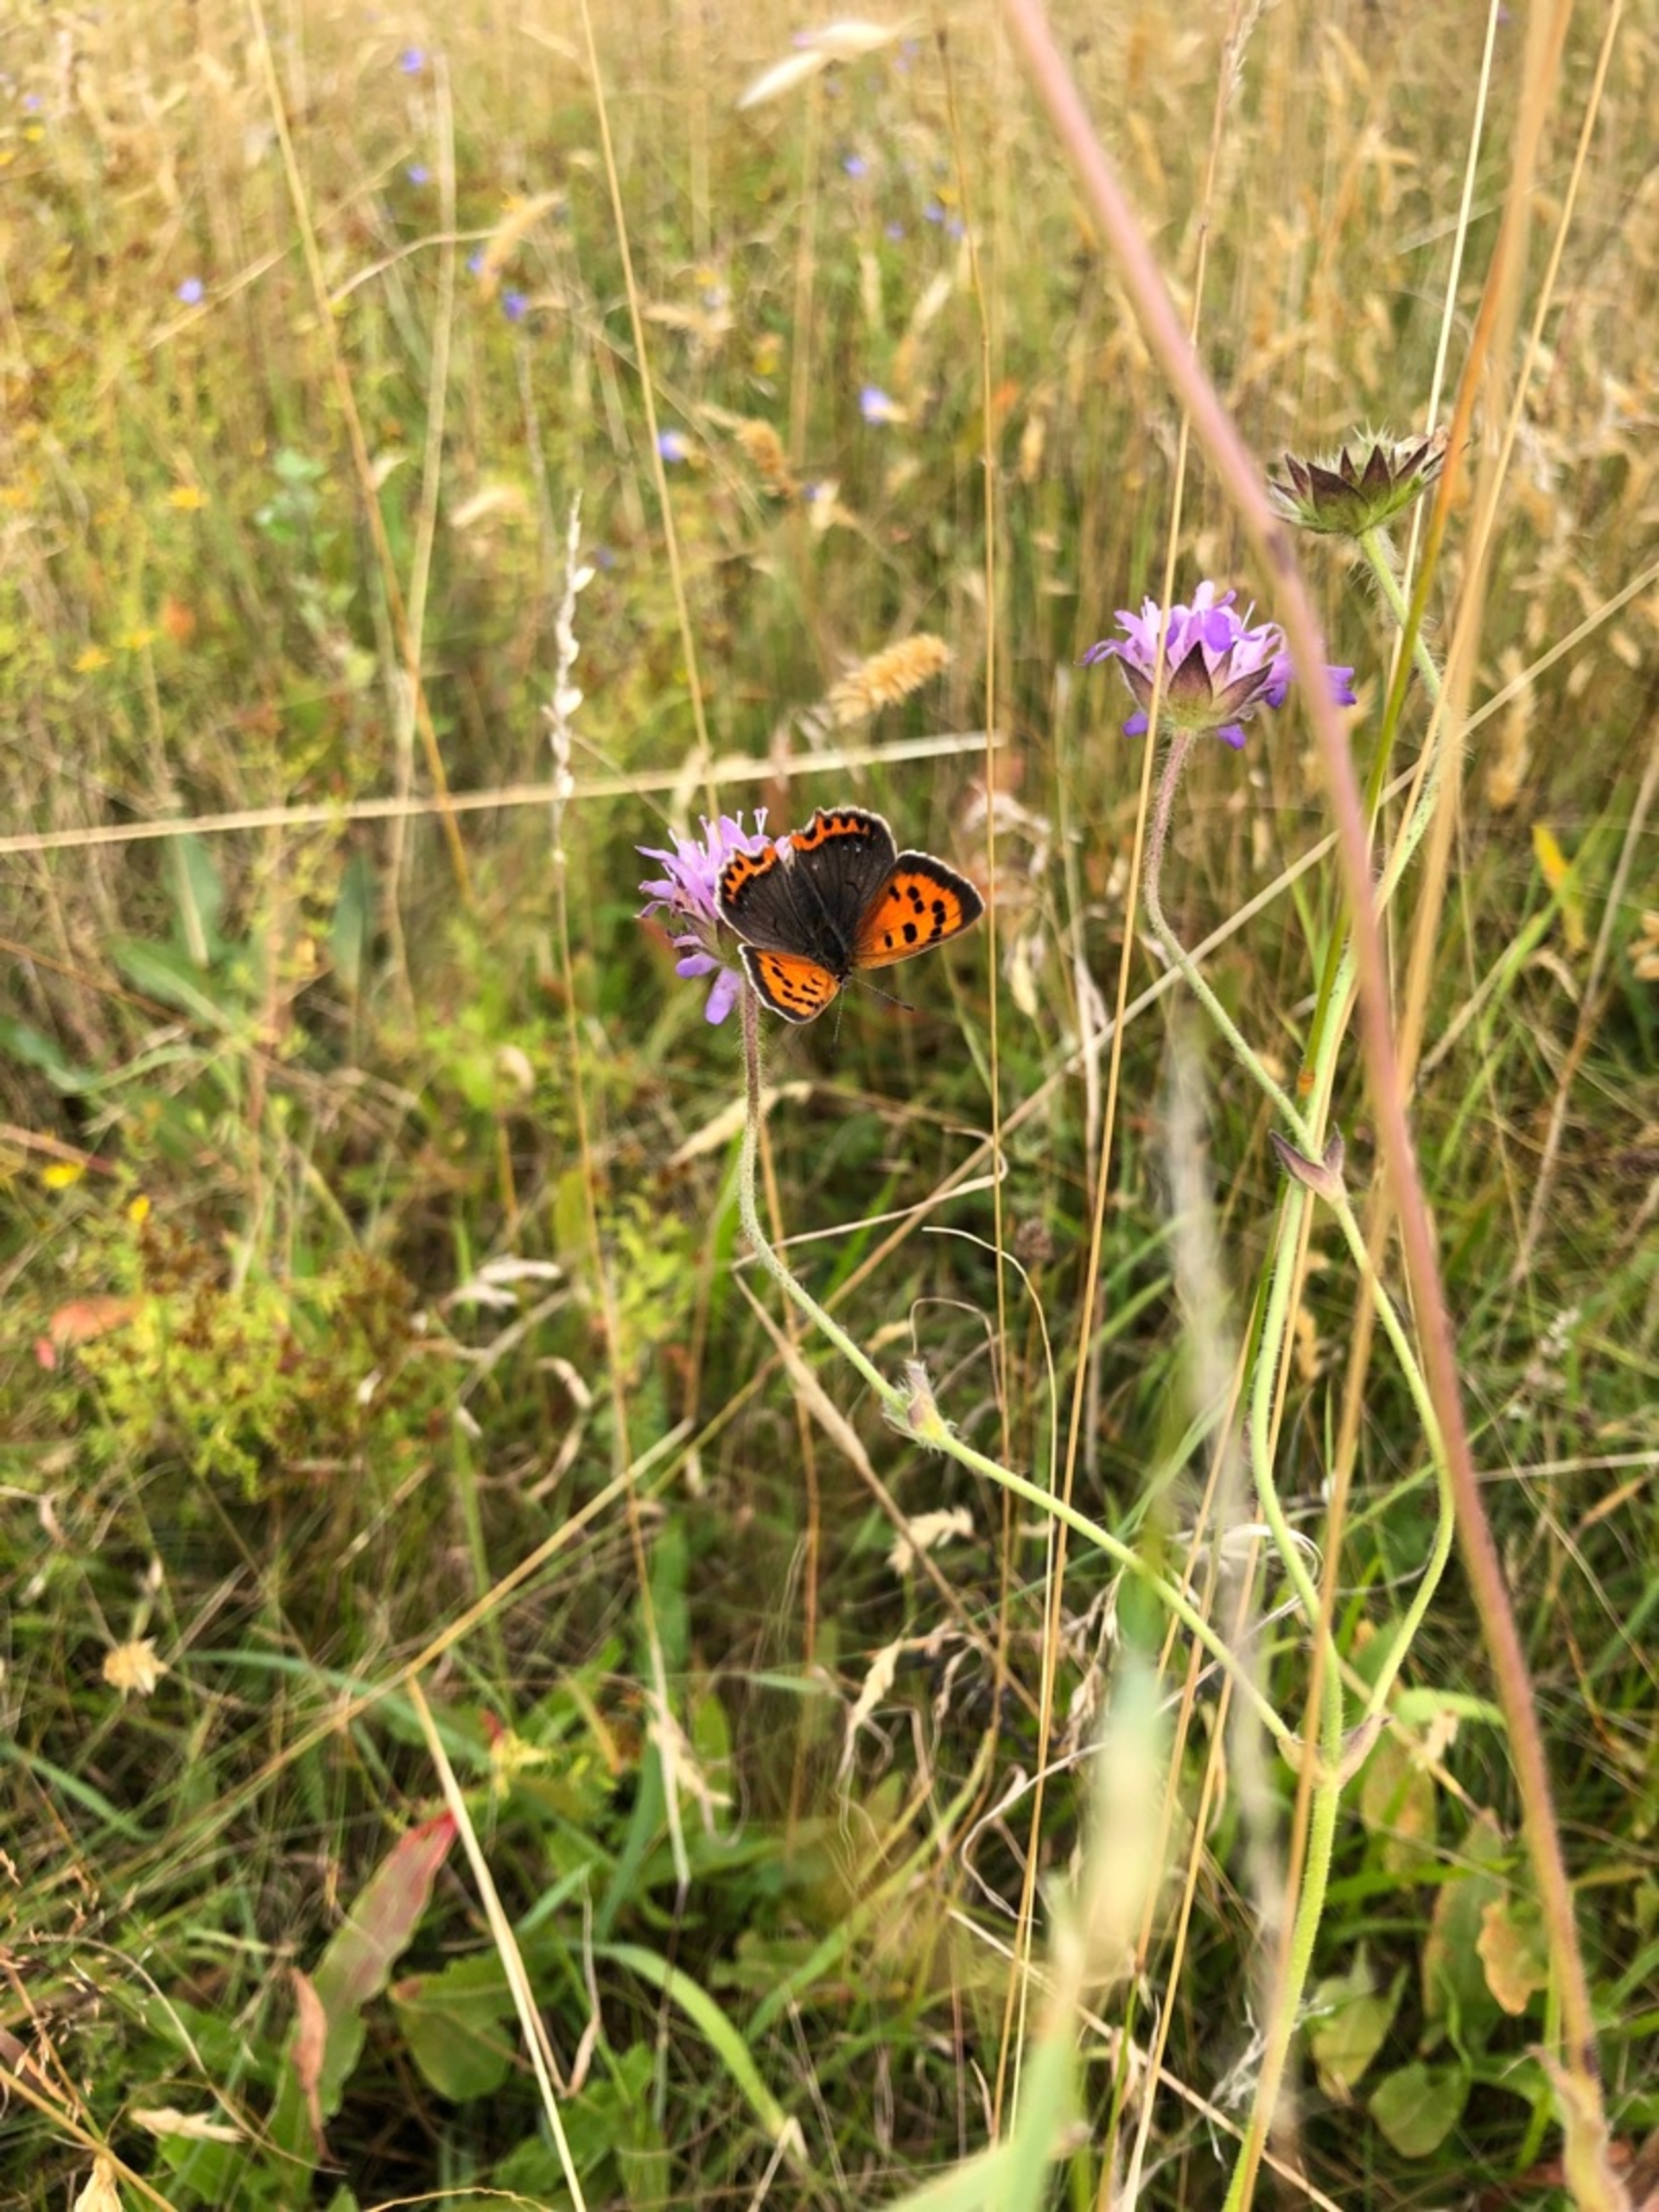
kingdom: Animalia
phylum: Arthropoda
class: Insecta
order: Lepidoptera
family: Lycaenidae
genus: Lycaena
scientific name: Lycaena phlaeas
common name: Lille ildfugl
